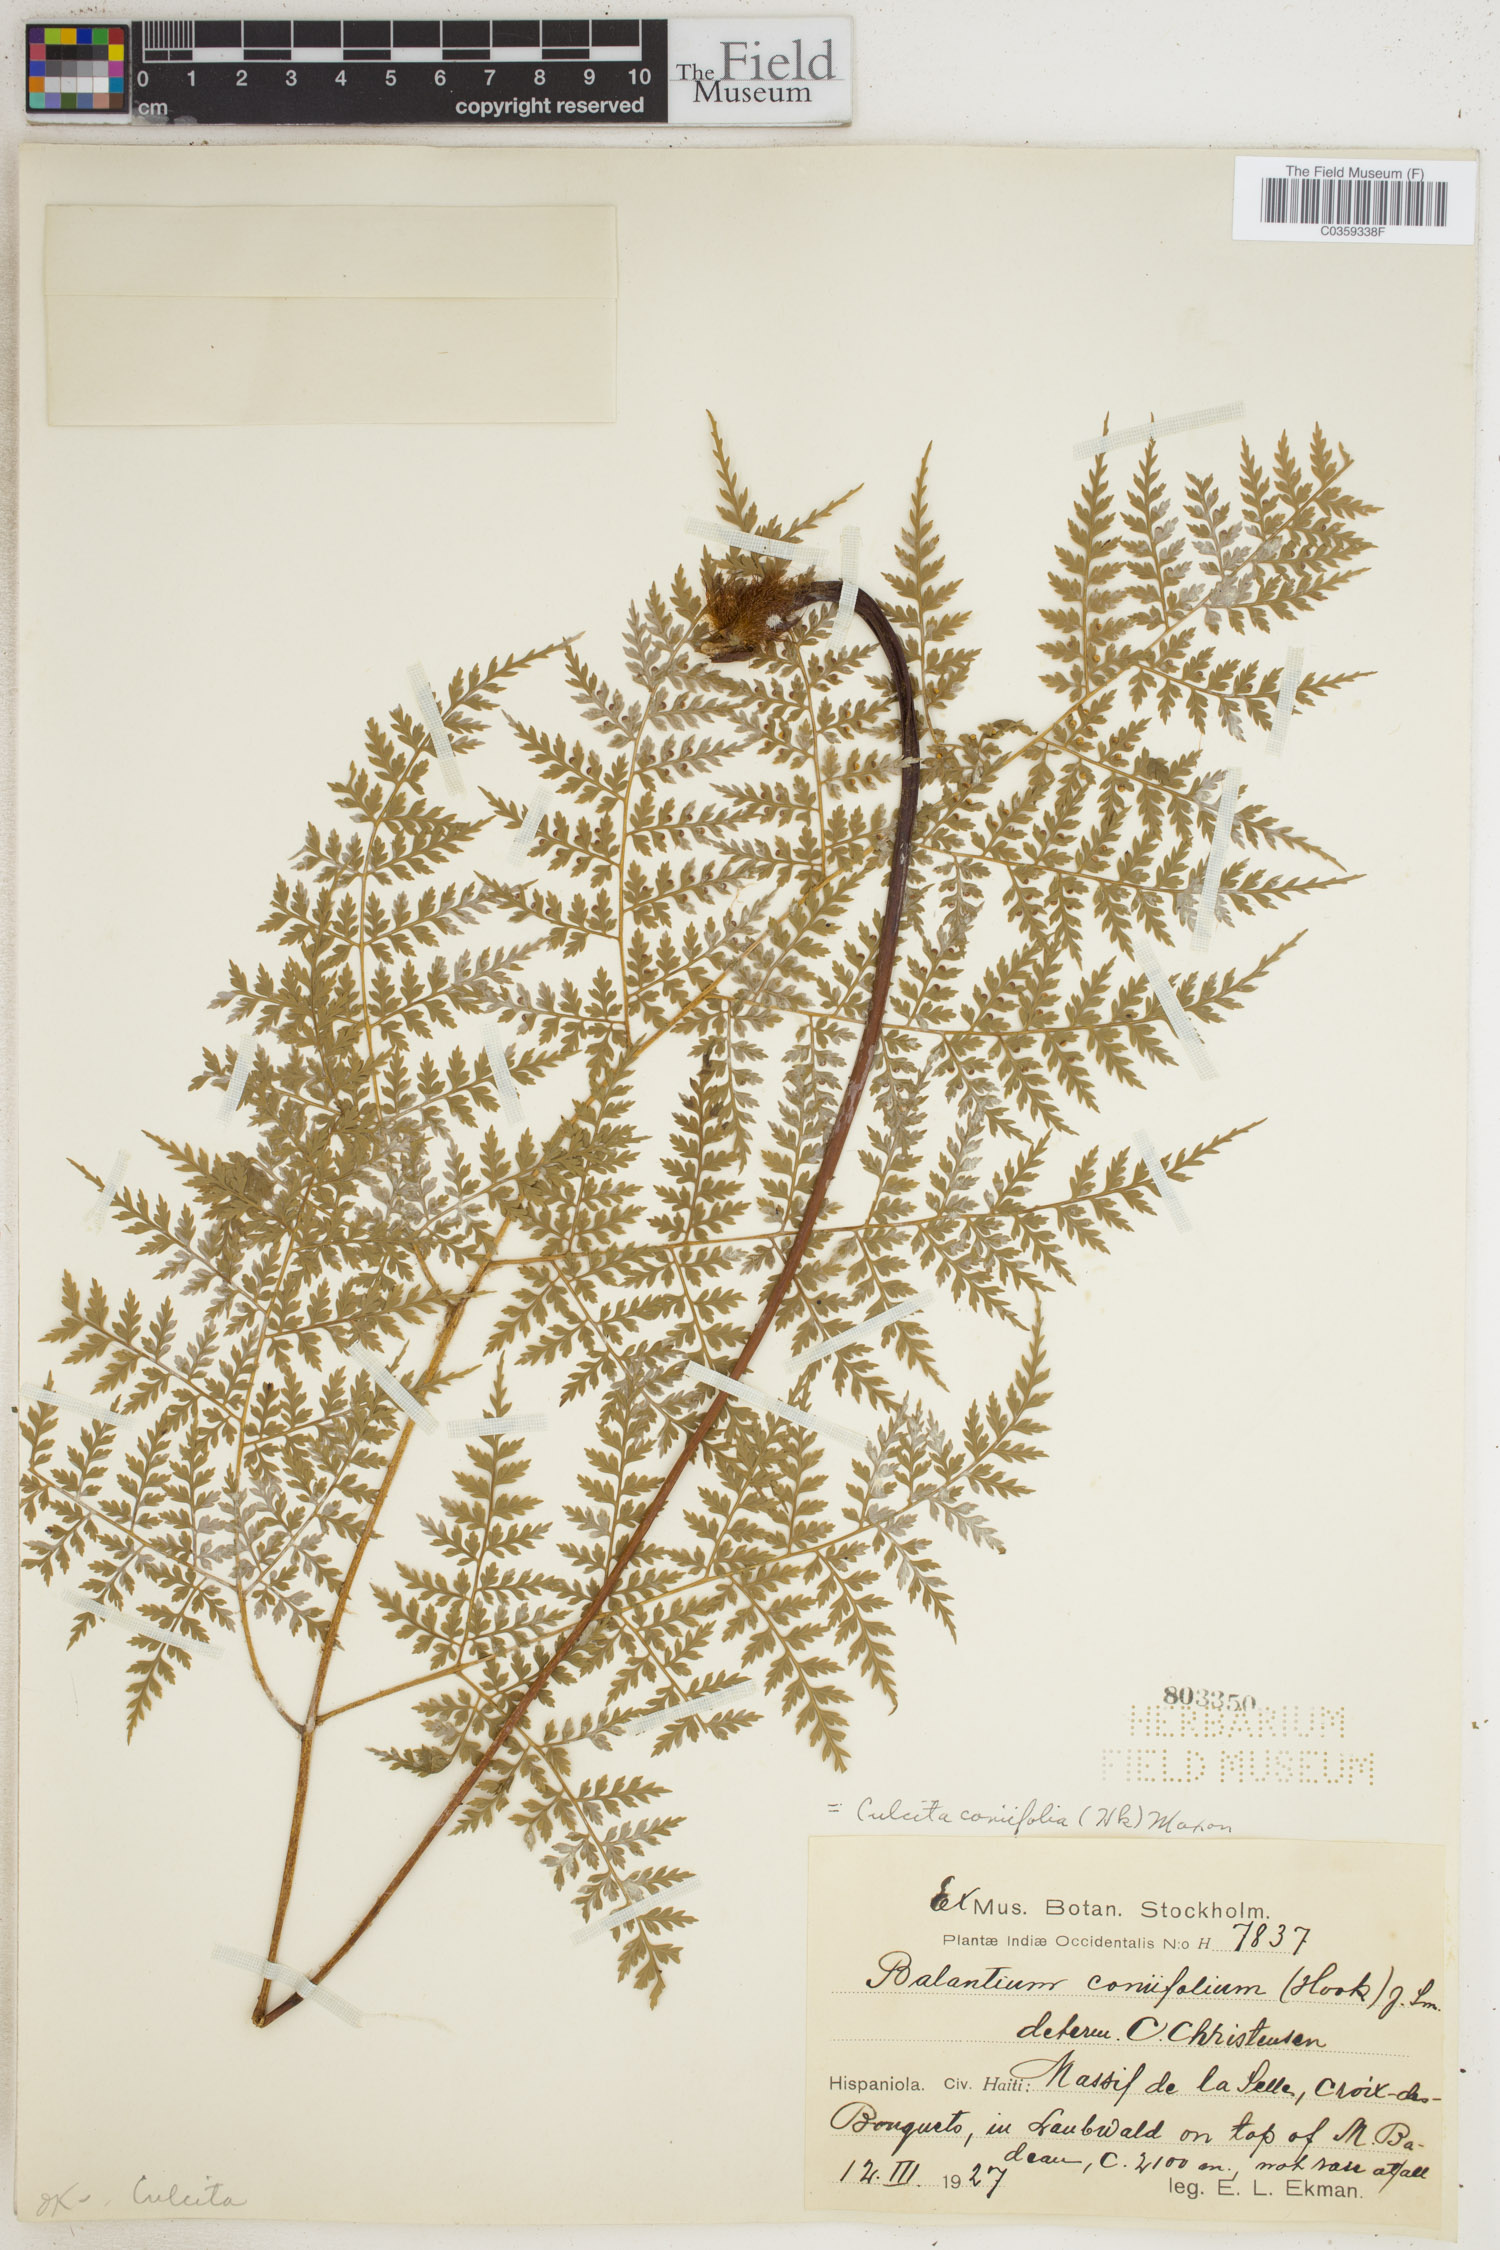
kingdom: Plantae
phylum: Tracheophyta
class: Polypodiopsida
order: Cyatheales
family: Culcitaceae
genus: Culcita
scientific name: Culcita coniifolia
